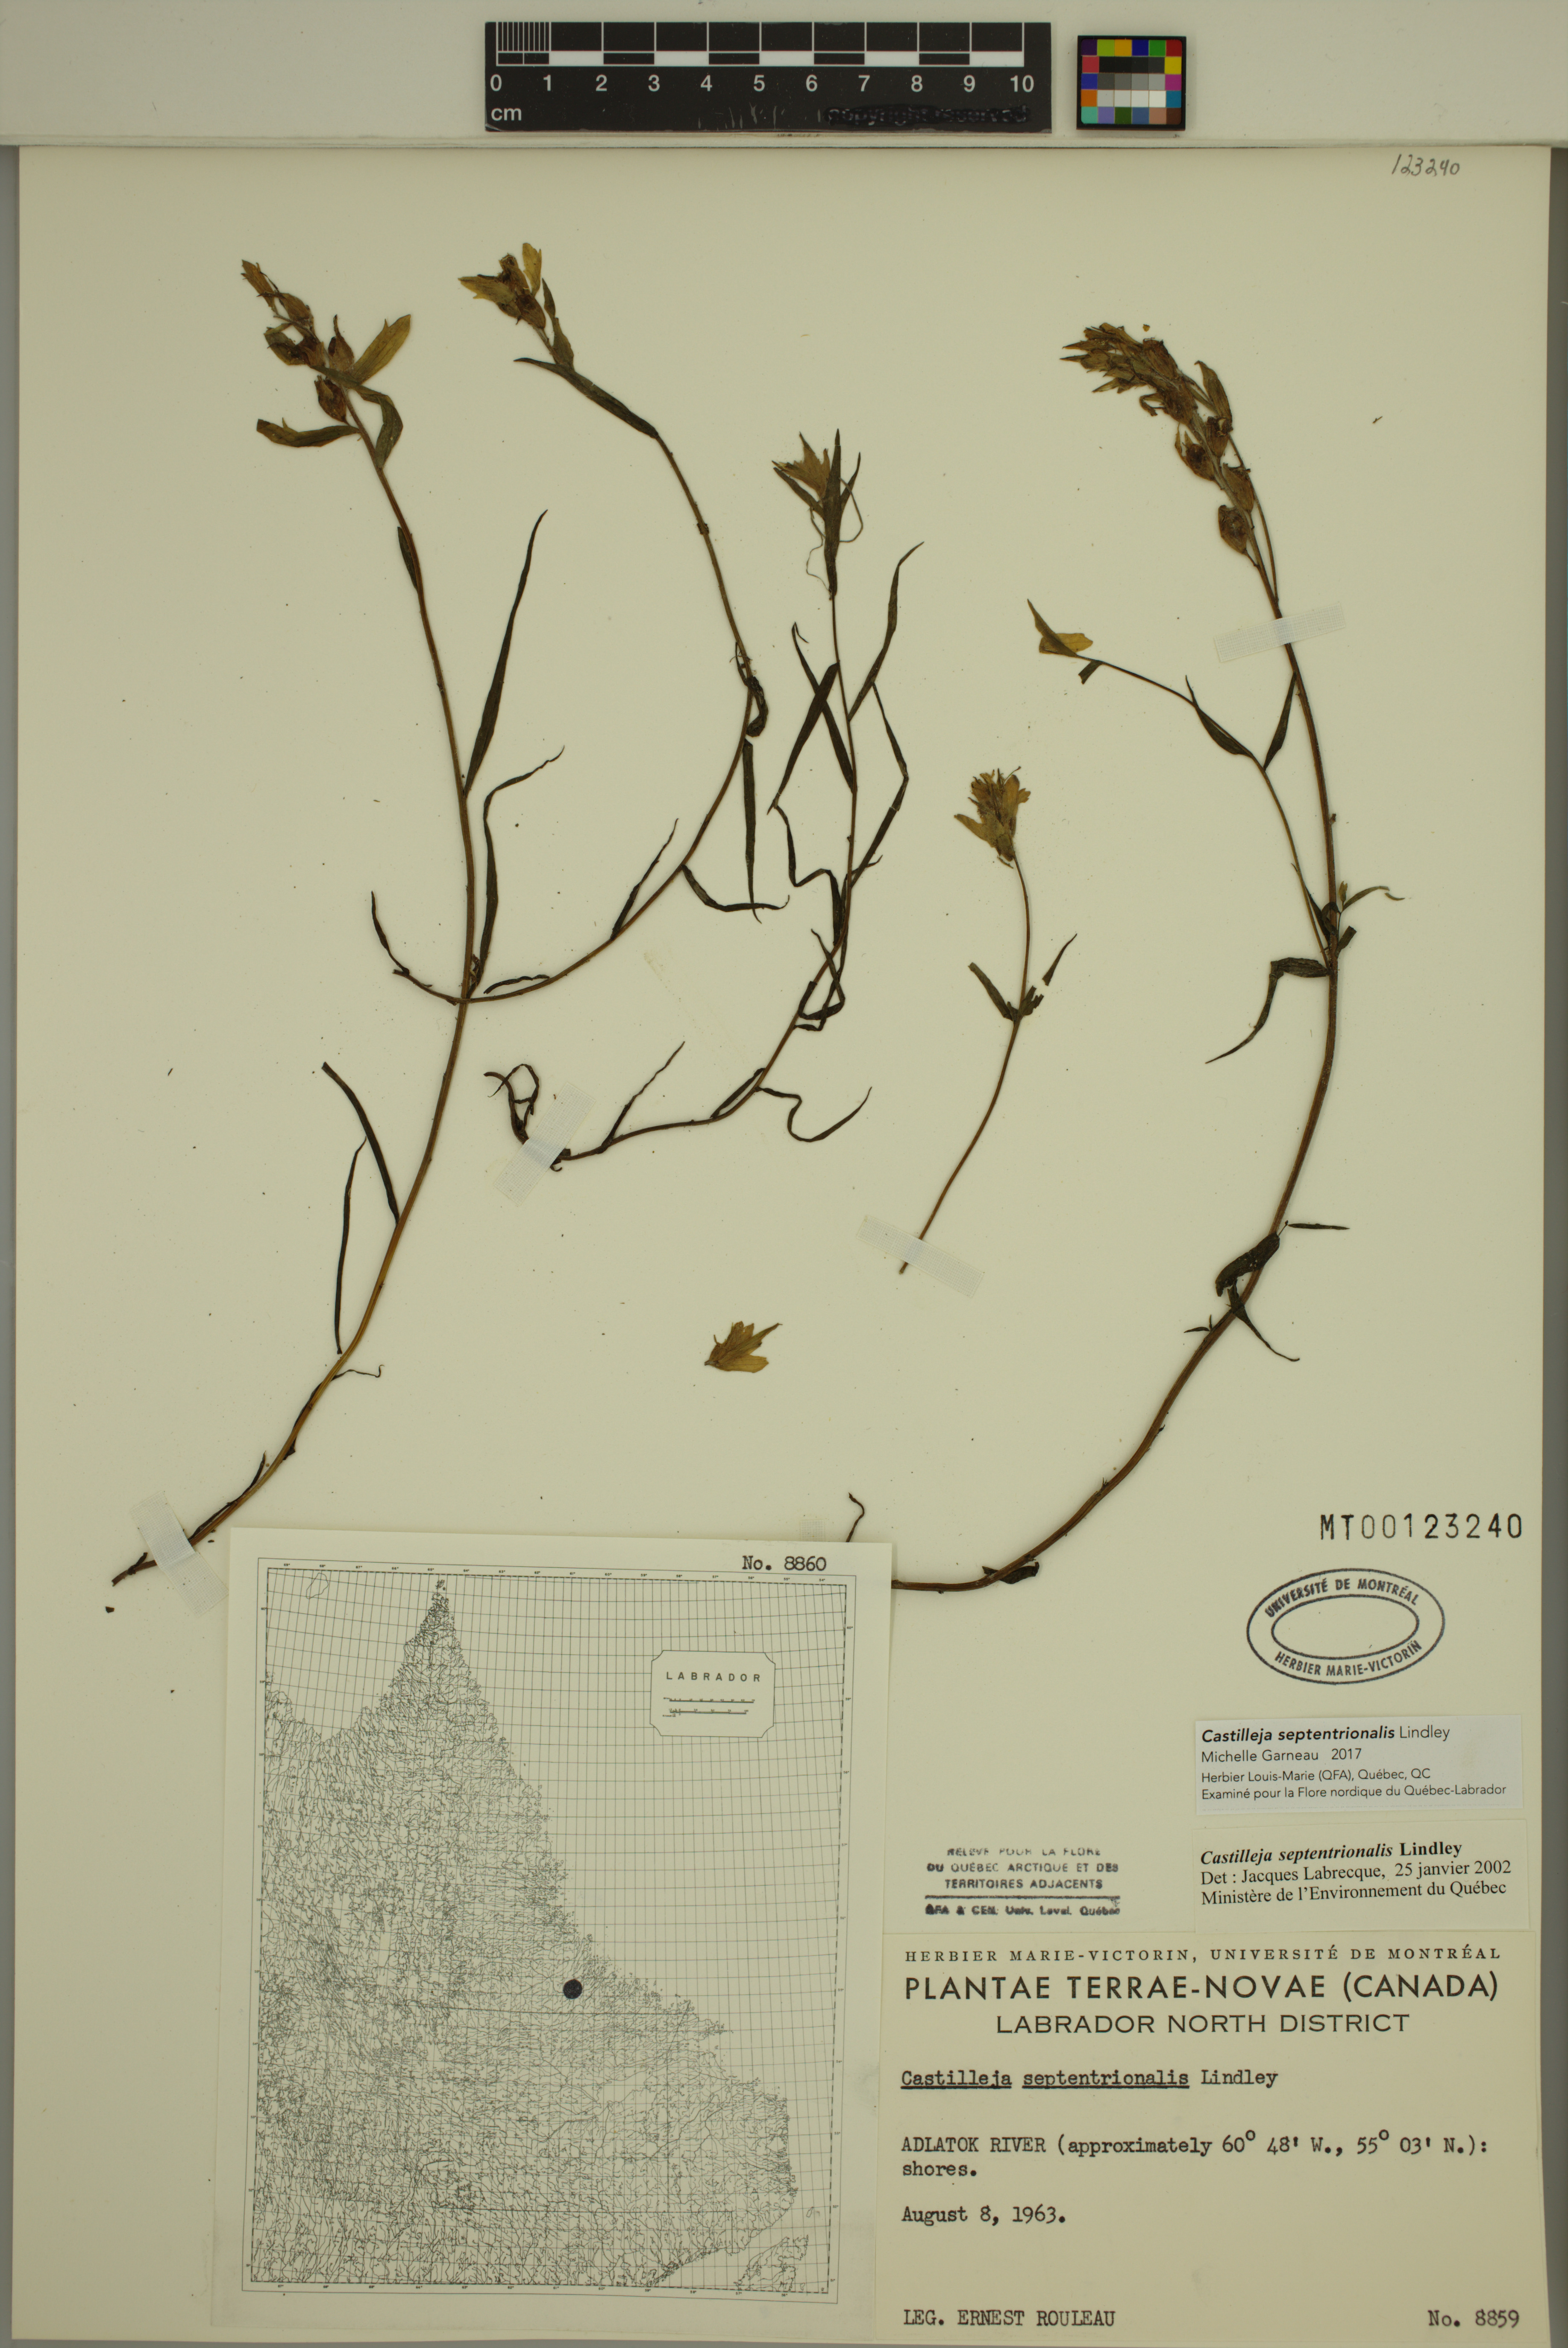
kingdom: Plantae
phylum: Tracheophyta
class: Magnoliopsida
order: Lamiales
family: Orobanchaceae
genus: Castilleja
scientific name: Castilleja septentrionalis
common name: Northeastern paintbrush
